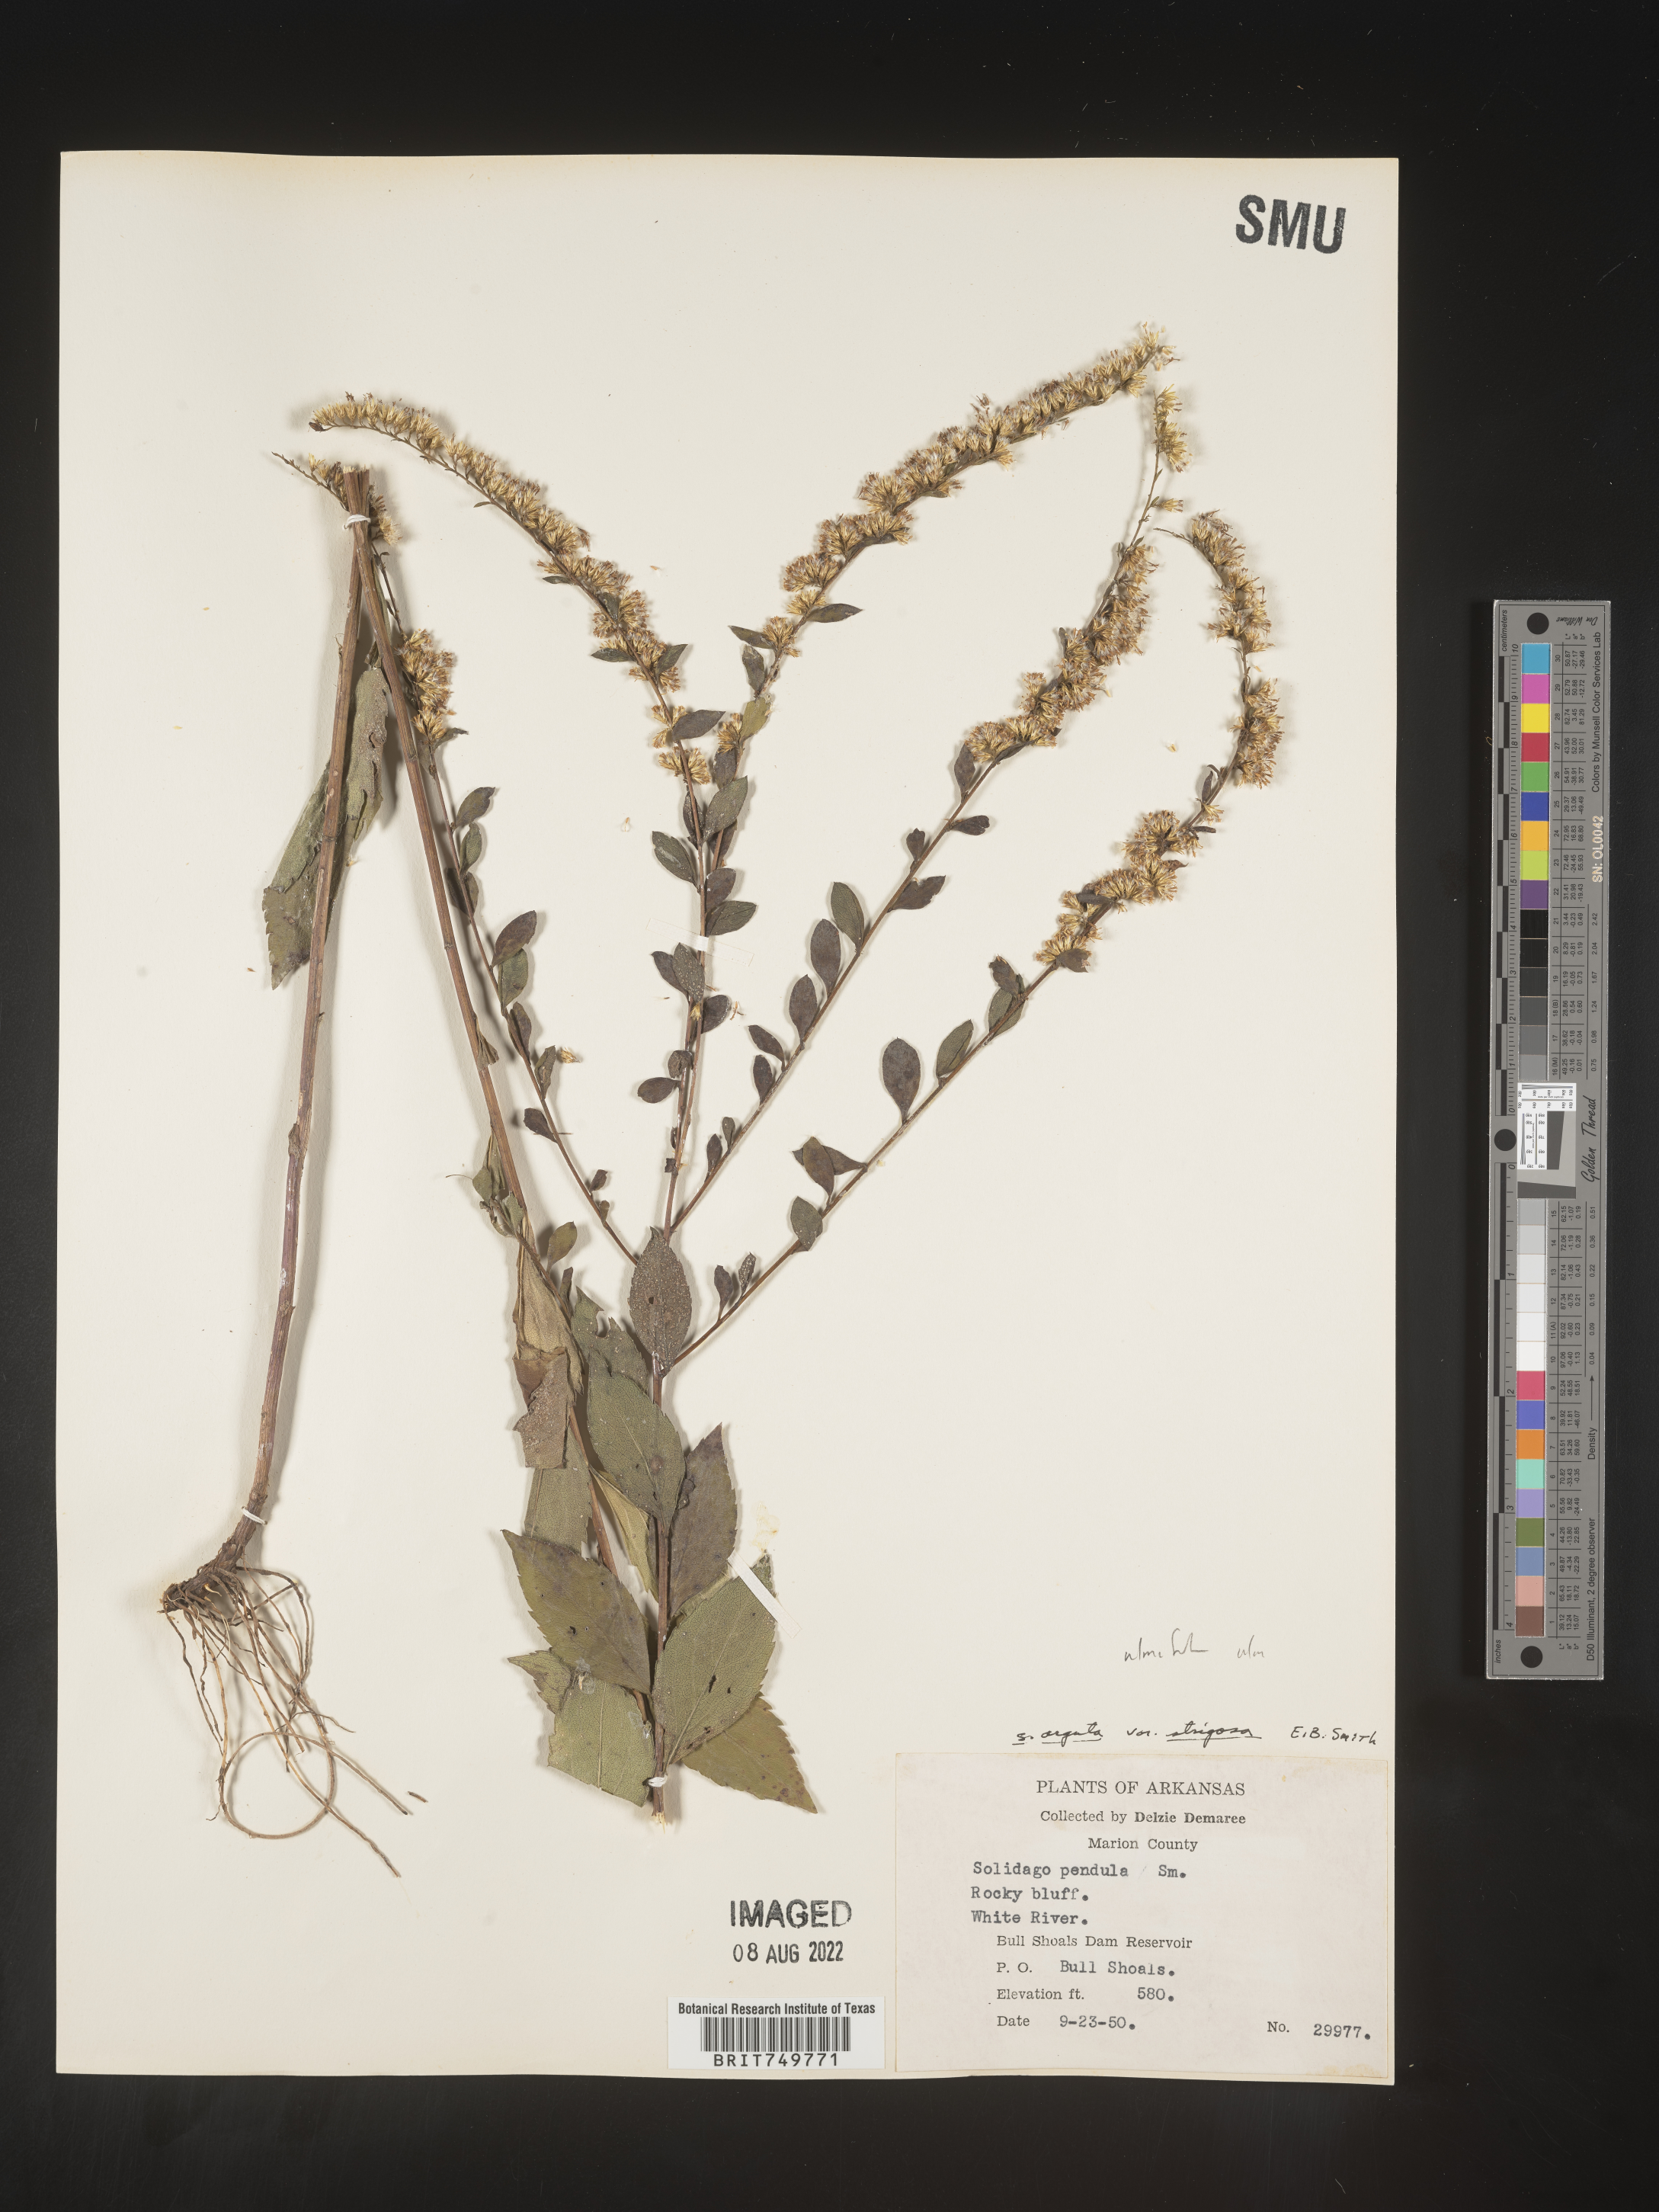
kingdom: Plantae
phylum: Tracheophyta
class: Magnoliopsida
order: Asterales
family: Asteraceae
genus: Solidago
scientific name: Solidago ulmifolia
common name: Elm-leaf goldenrod
